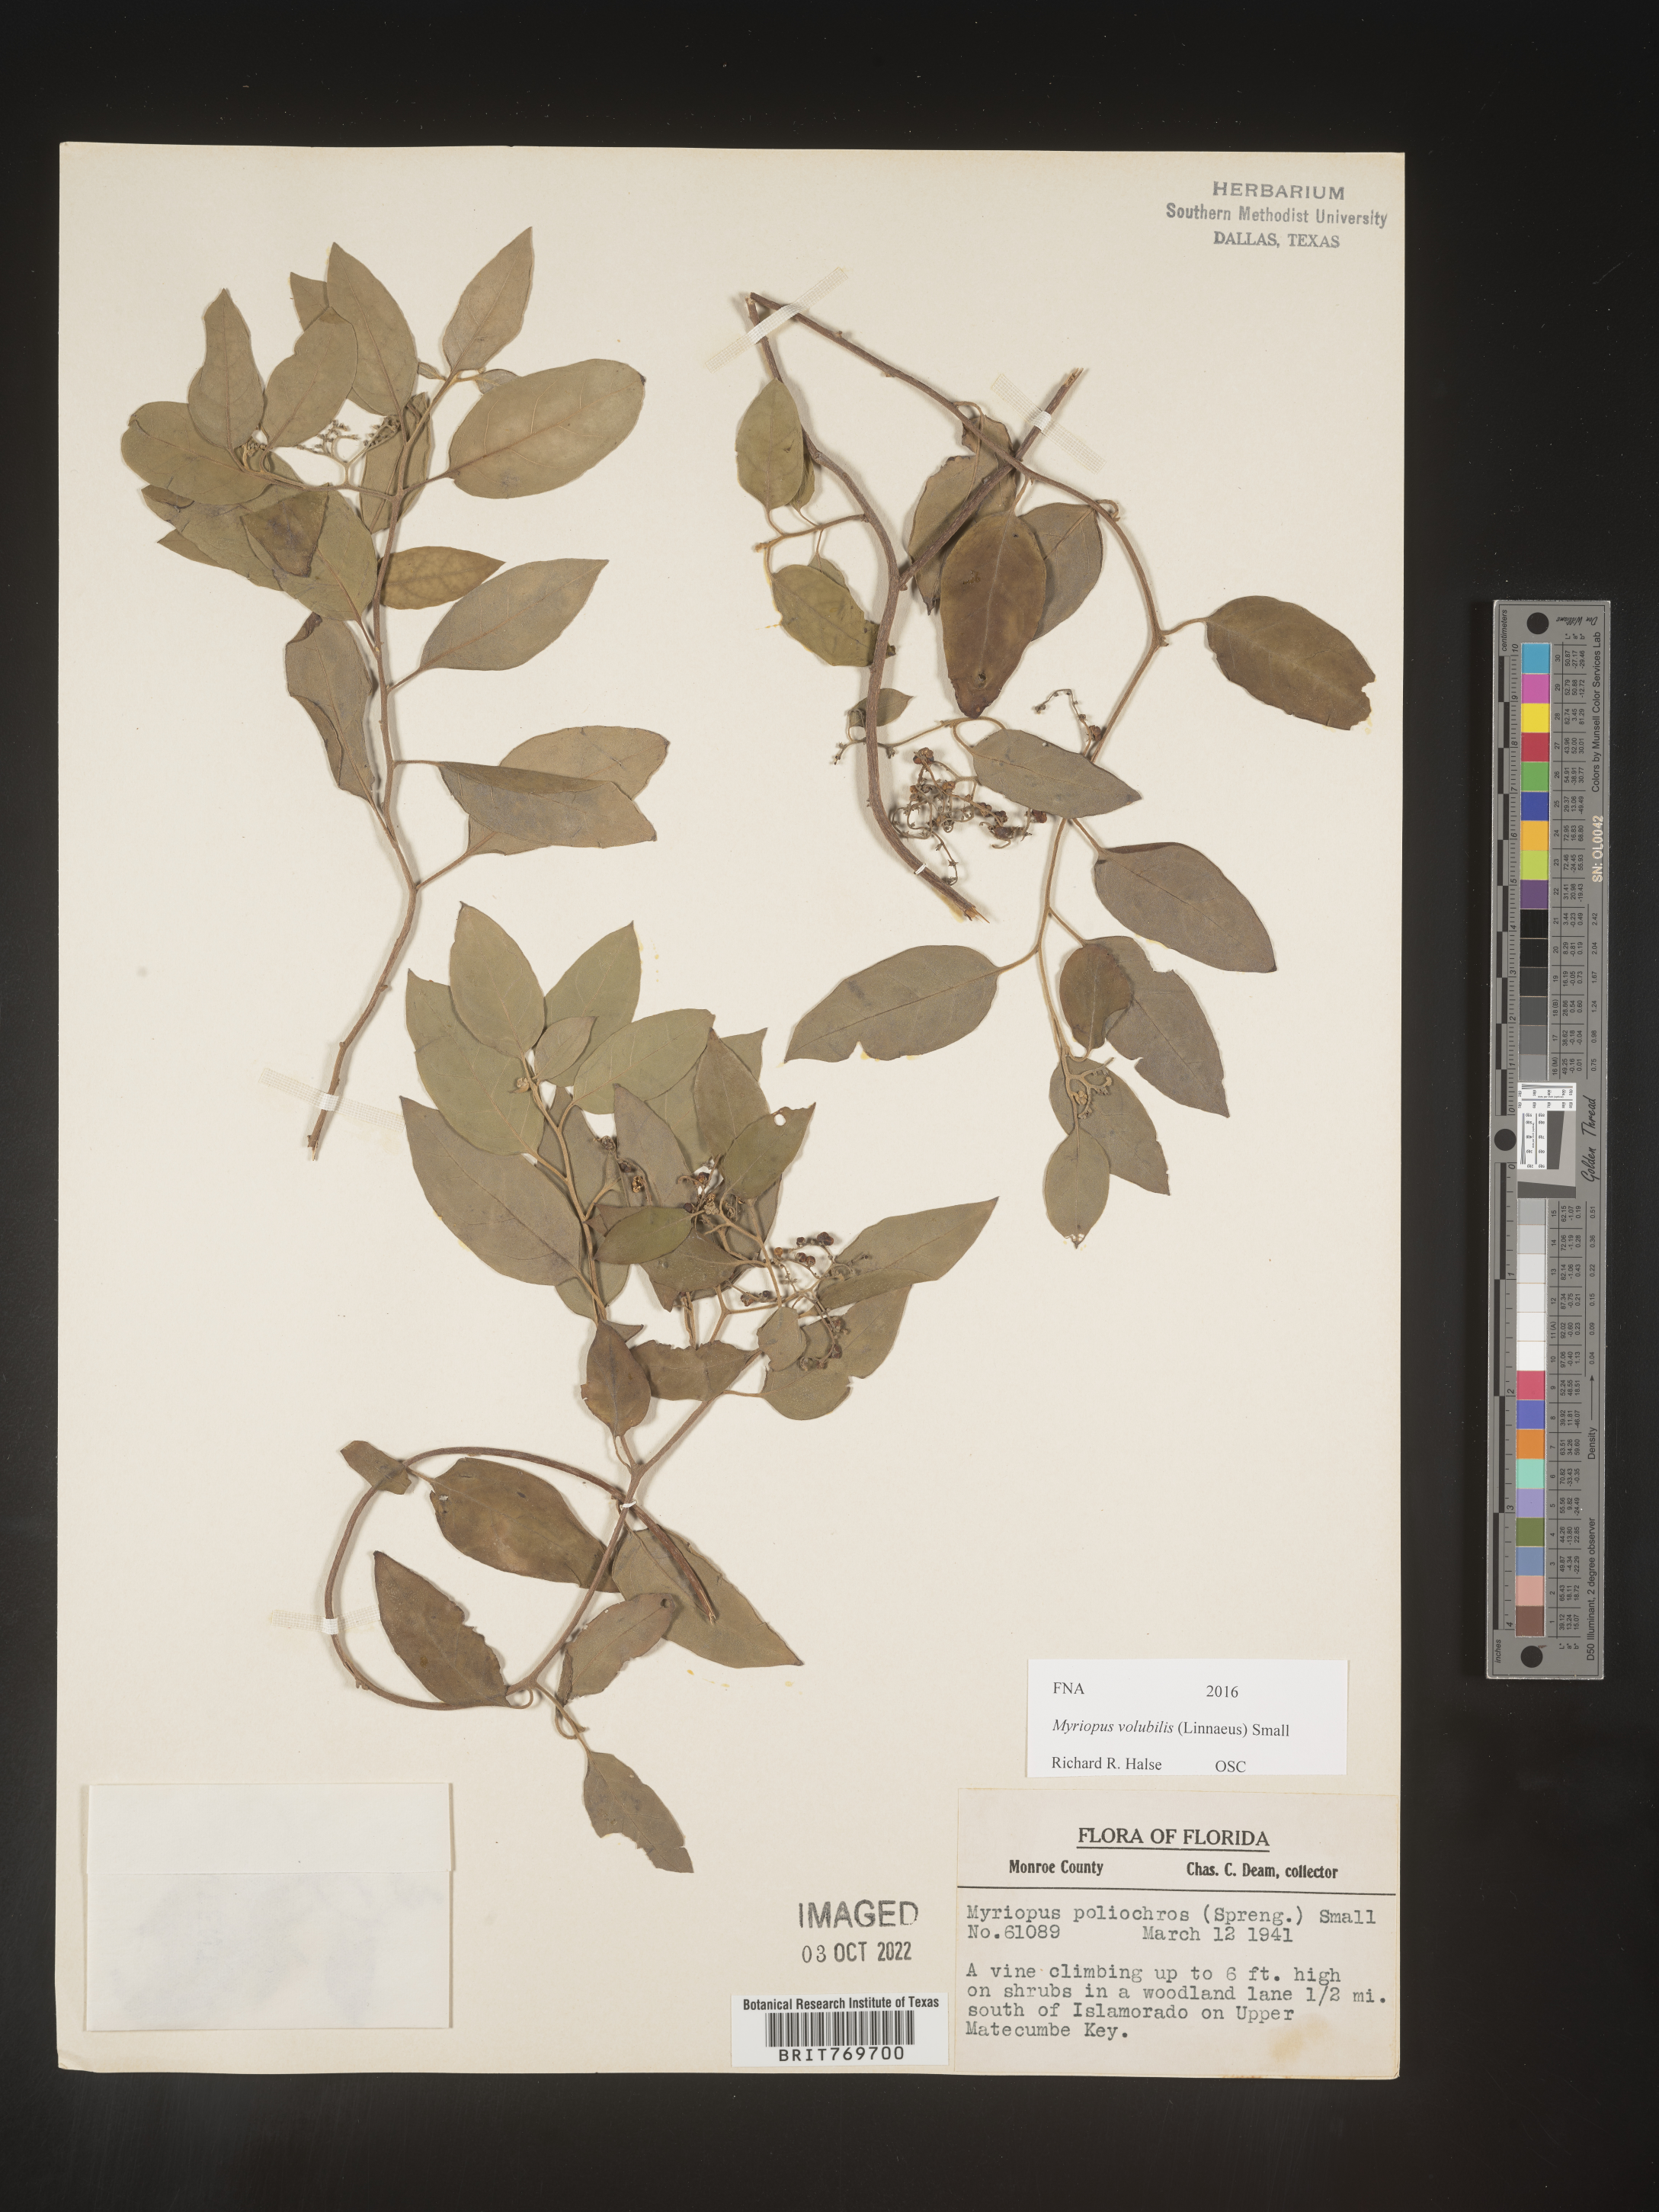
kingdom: Plantae
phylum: Tracheophyta
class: Magnoliopsida
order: Boraginales
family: Heliotropiaceae
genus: Myriopus
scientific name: Myriopus
